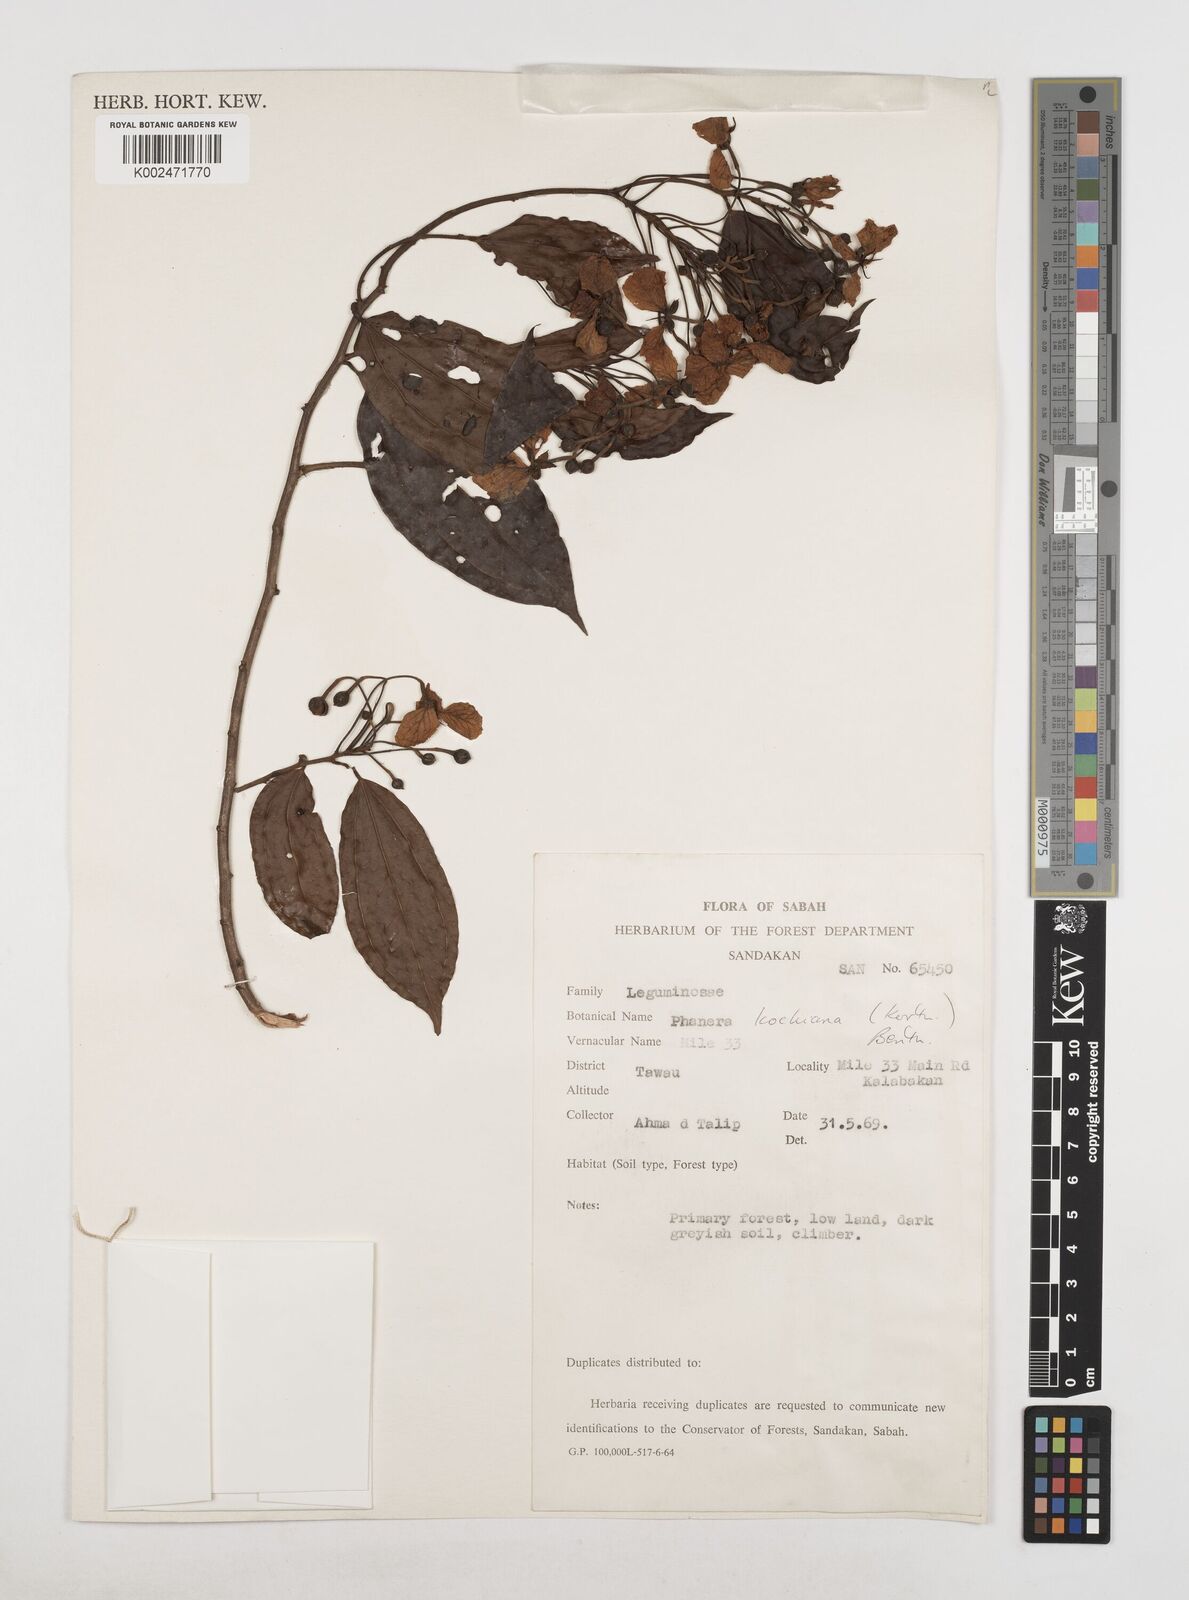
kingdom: Plantae
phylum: Tracheophyta
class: Magnoliopsida
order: Fabales
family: Fabaceae
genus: Phanera
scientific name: Phanera kockiana
